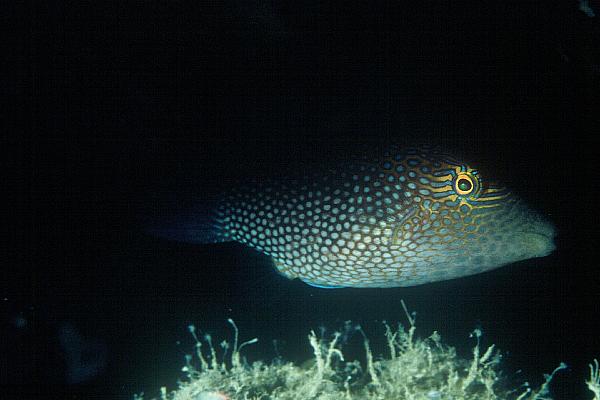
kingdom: Animalia
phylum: Chordata
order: Tetraodontiformes
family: Tetraodontidae
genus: Canthigaster
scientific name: Canthigaster janthinoptera
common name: Honeycomb toby
